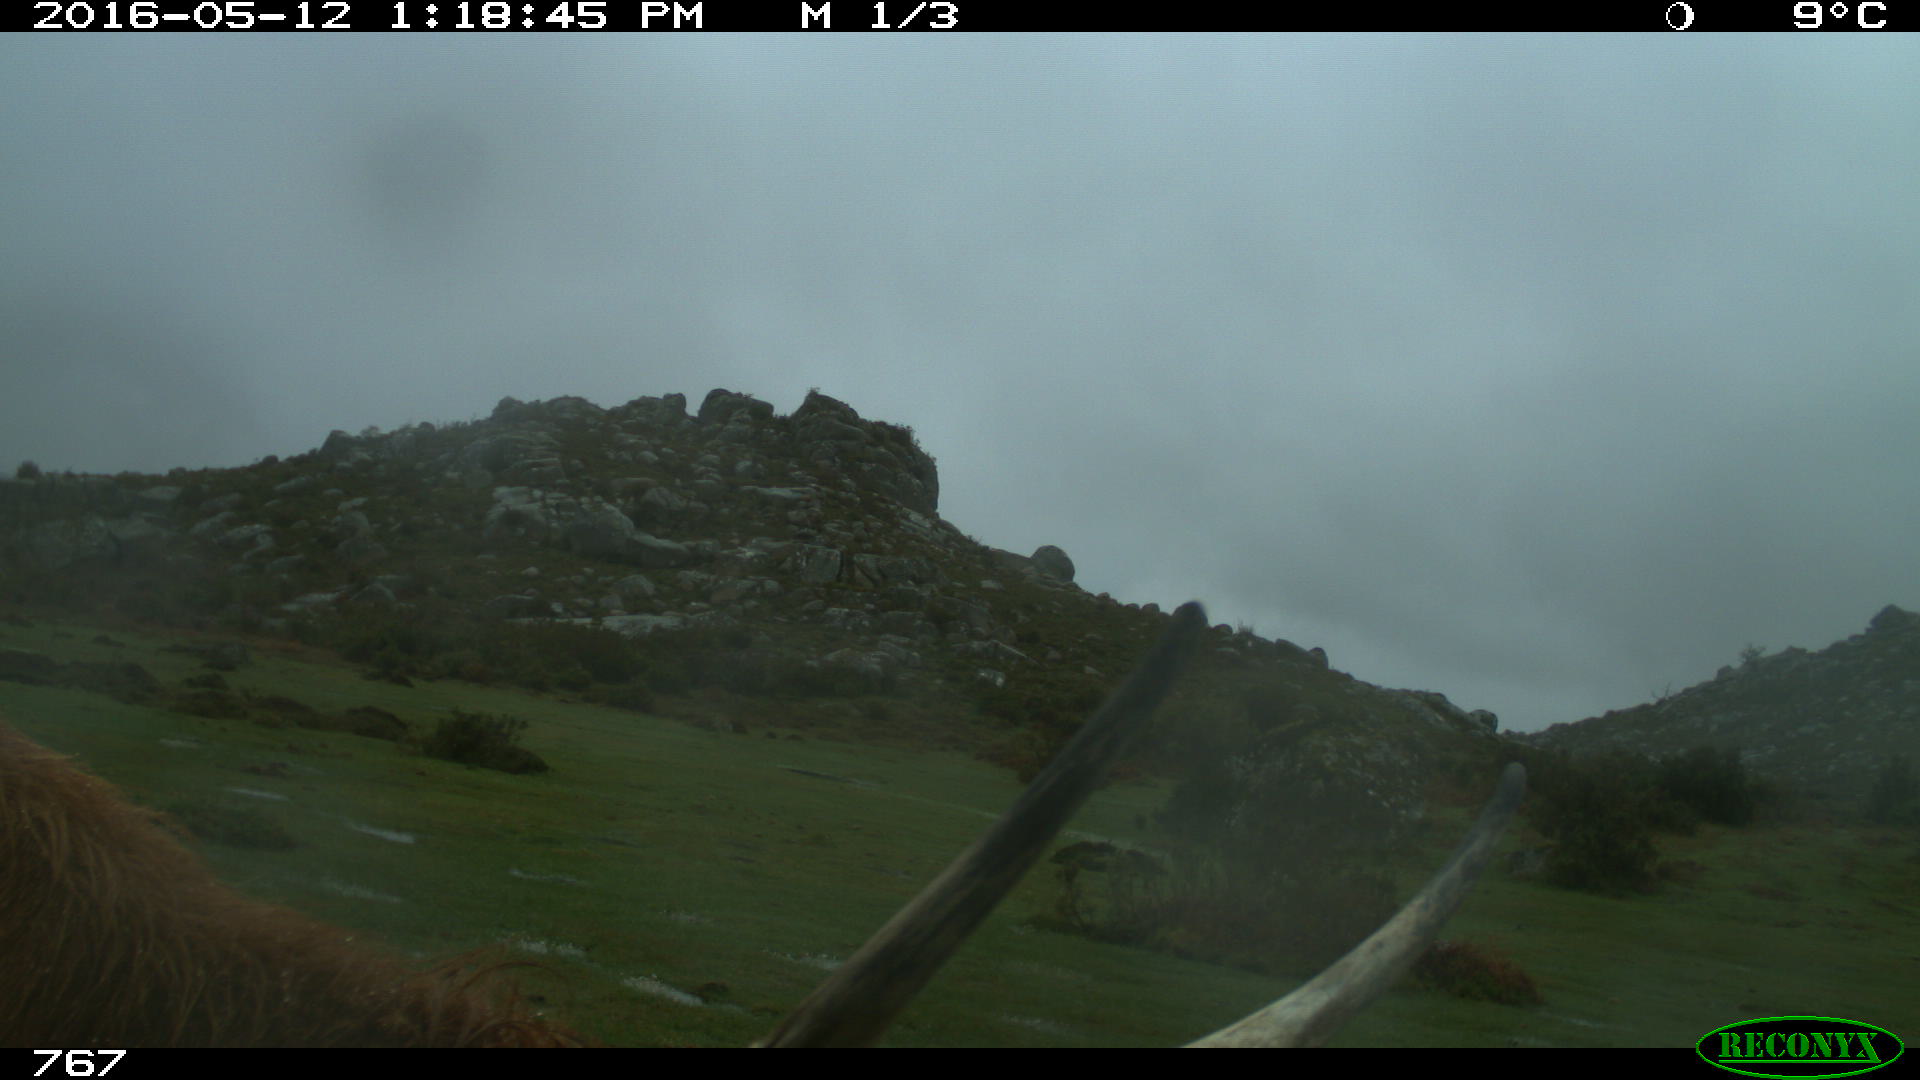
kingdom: Animalia
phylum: Chordata
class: Mammalia
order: Artiodactyla
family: Bovidae
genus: Bos
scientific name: Bos taurus
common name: Domesticated cattle
